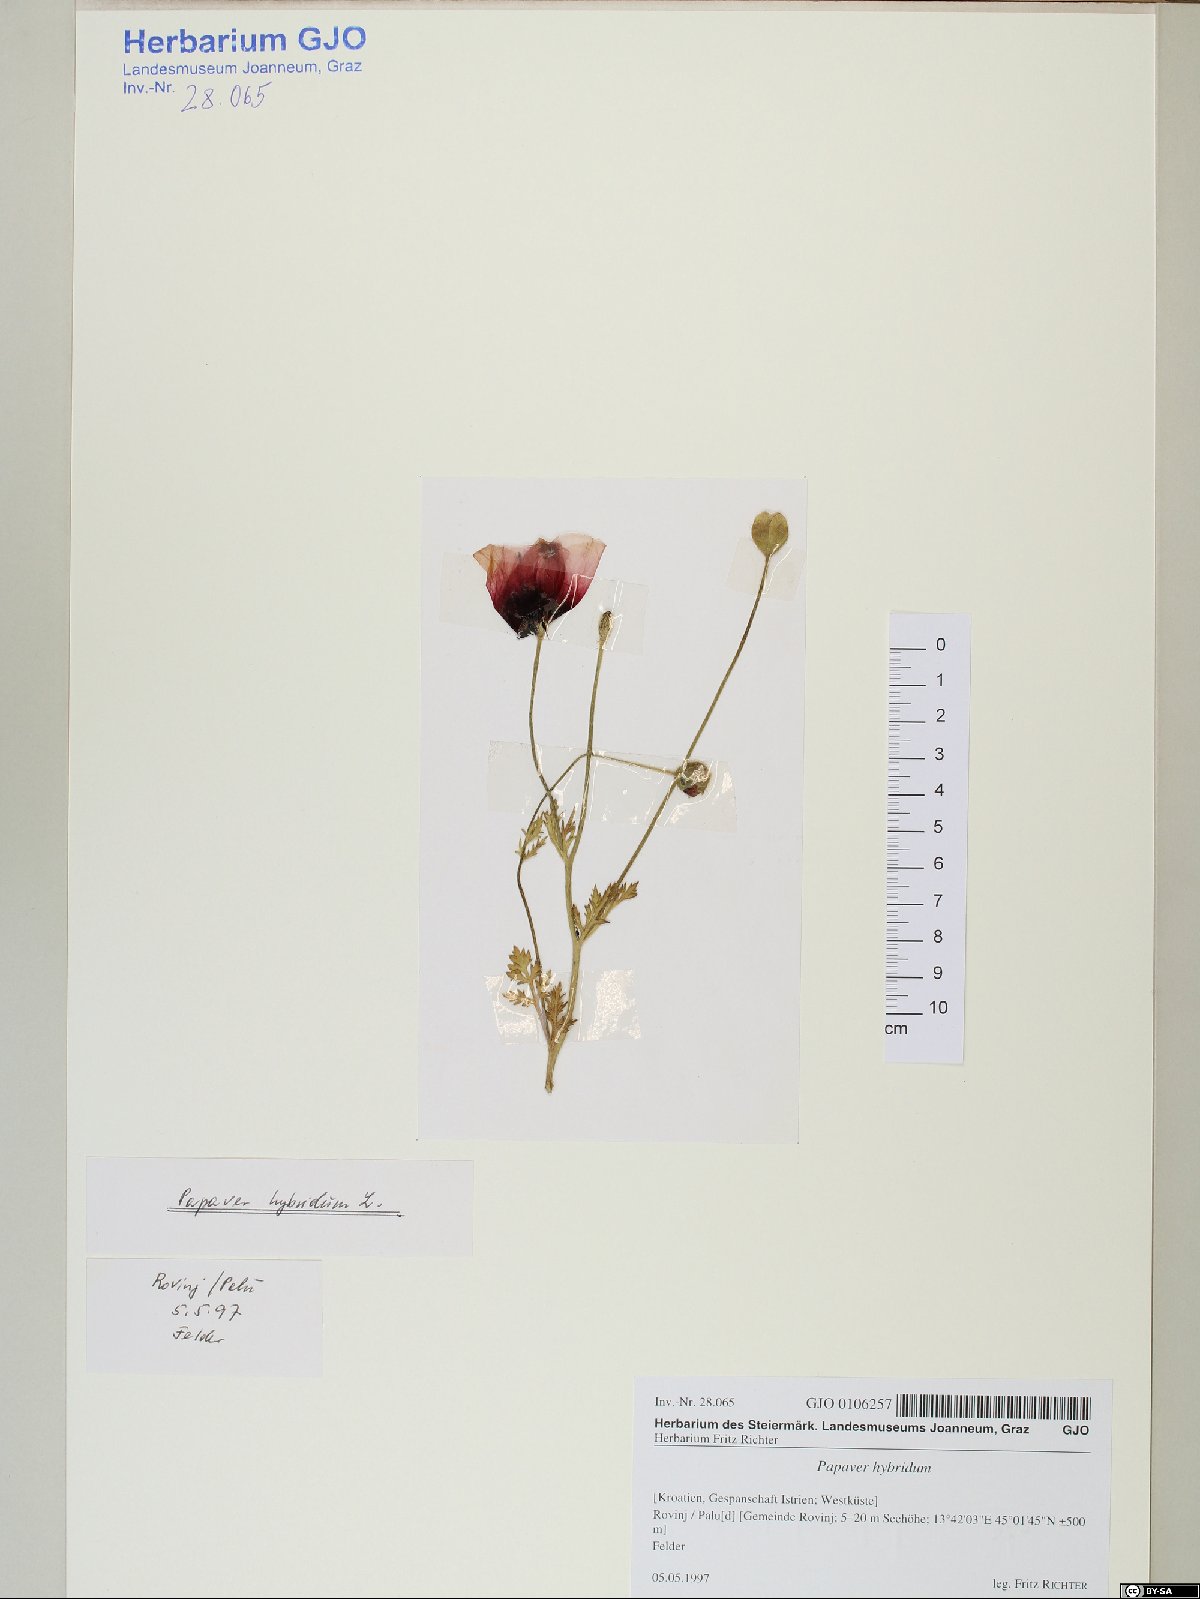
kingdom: Plantae
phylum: Tracheophyta
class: Magnoliopsida
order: Ranunculales
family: Papaveraceae
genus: Roemeria
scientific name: Roemeria hispida
